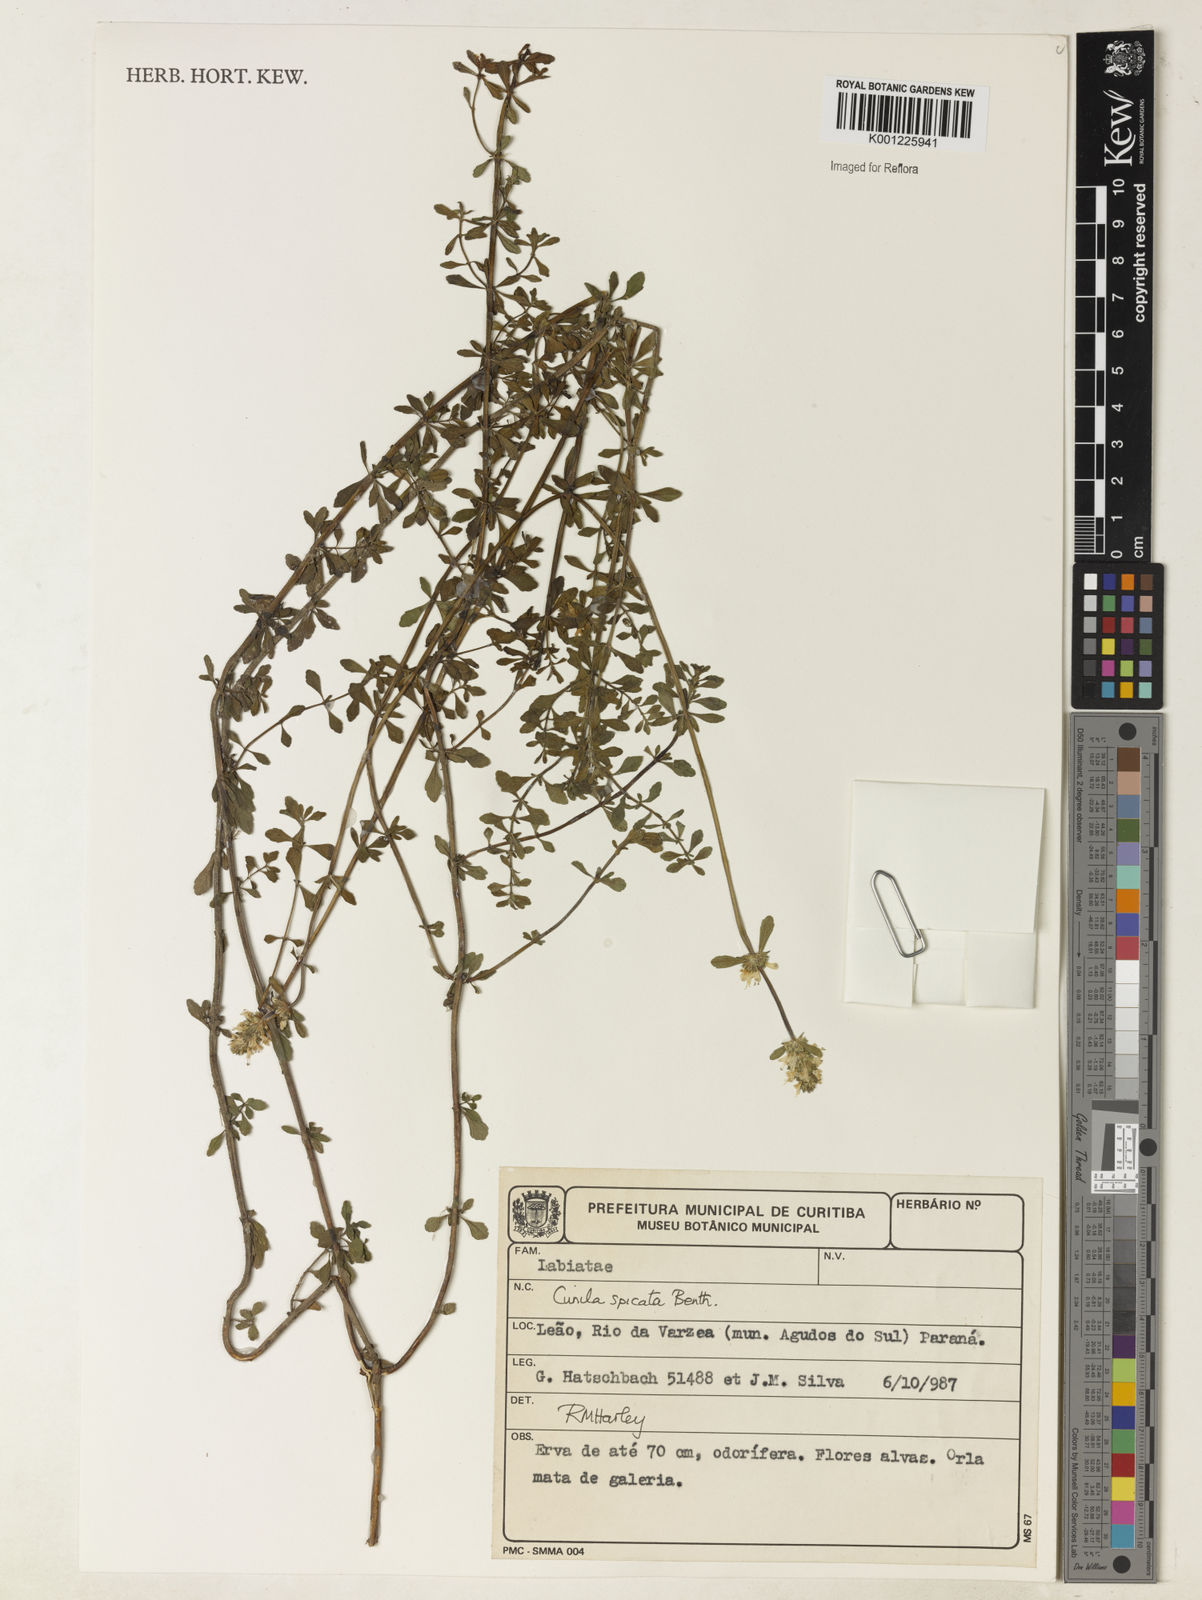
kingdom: Plantae
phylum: Tracheophyta
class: Magnoliopsida
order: Lamiales
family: Lamiaceae
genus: Cunila
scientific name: Cunila spicata
